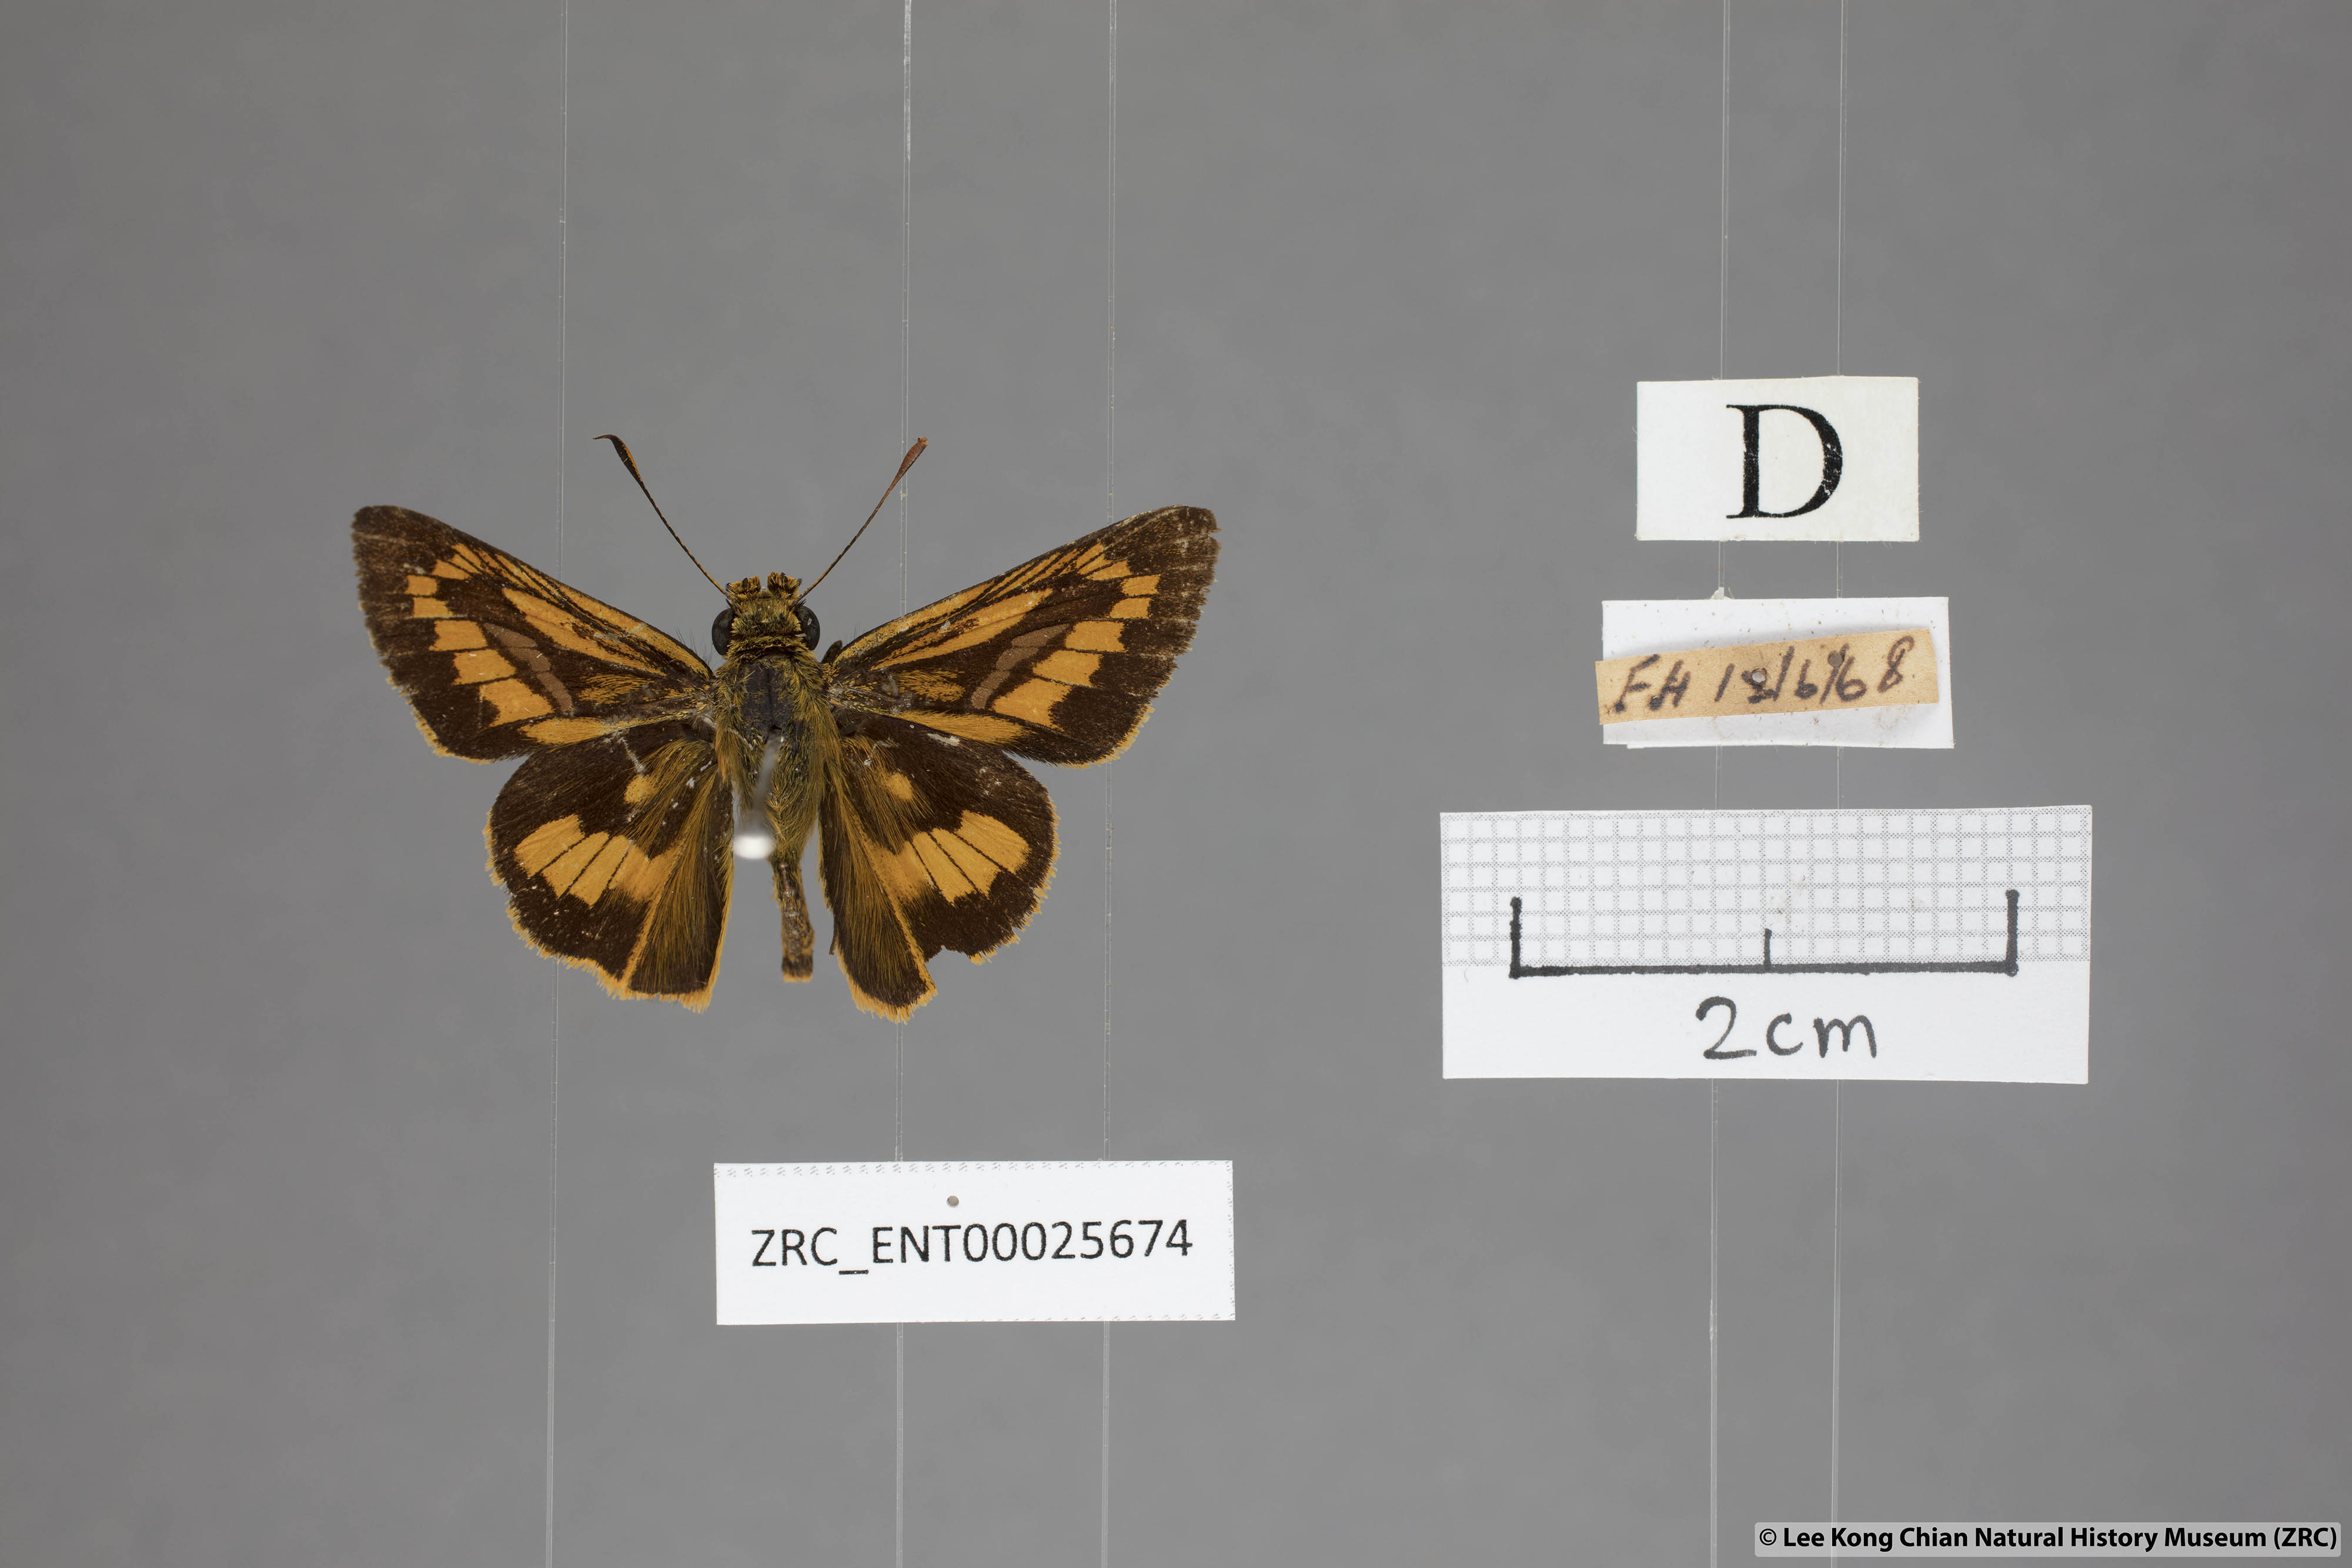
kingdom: Animalia
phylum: Arthropoda
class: Insecta
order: Lepidoptera
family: Hesperiidae
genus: Telicota
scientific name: Telicota hilda
